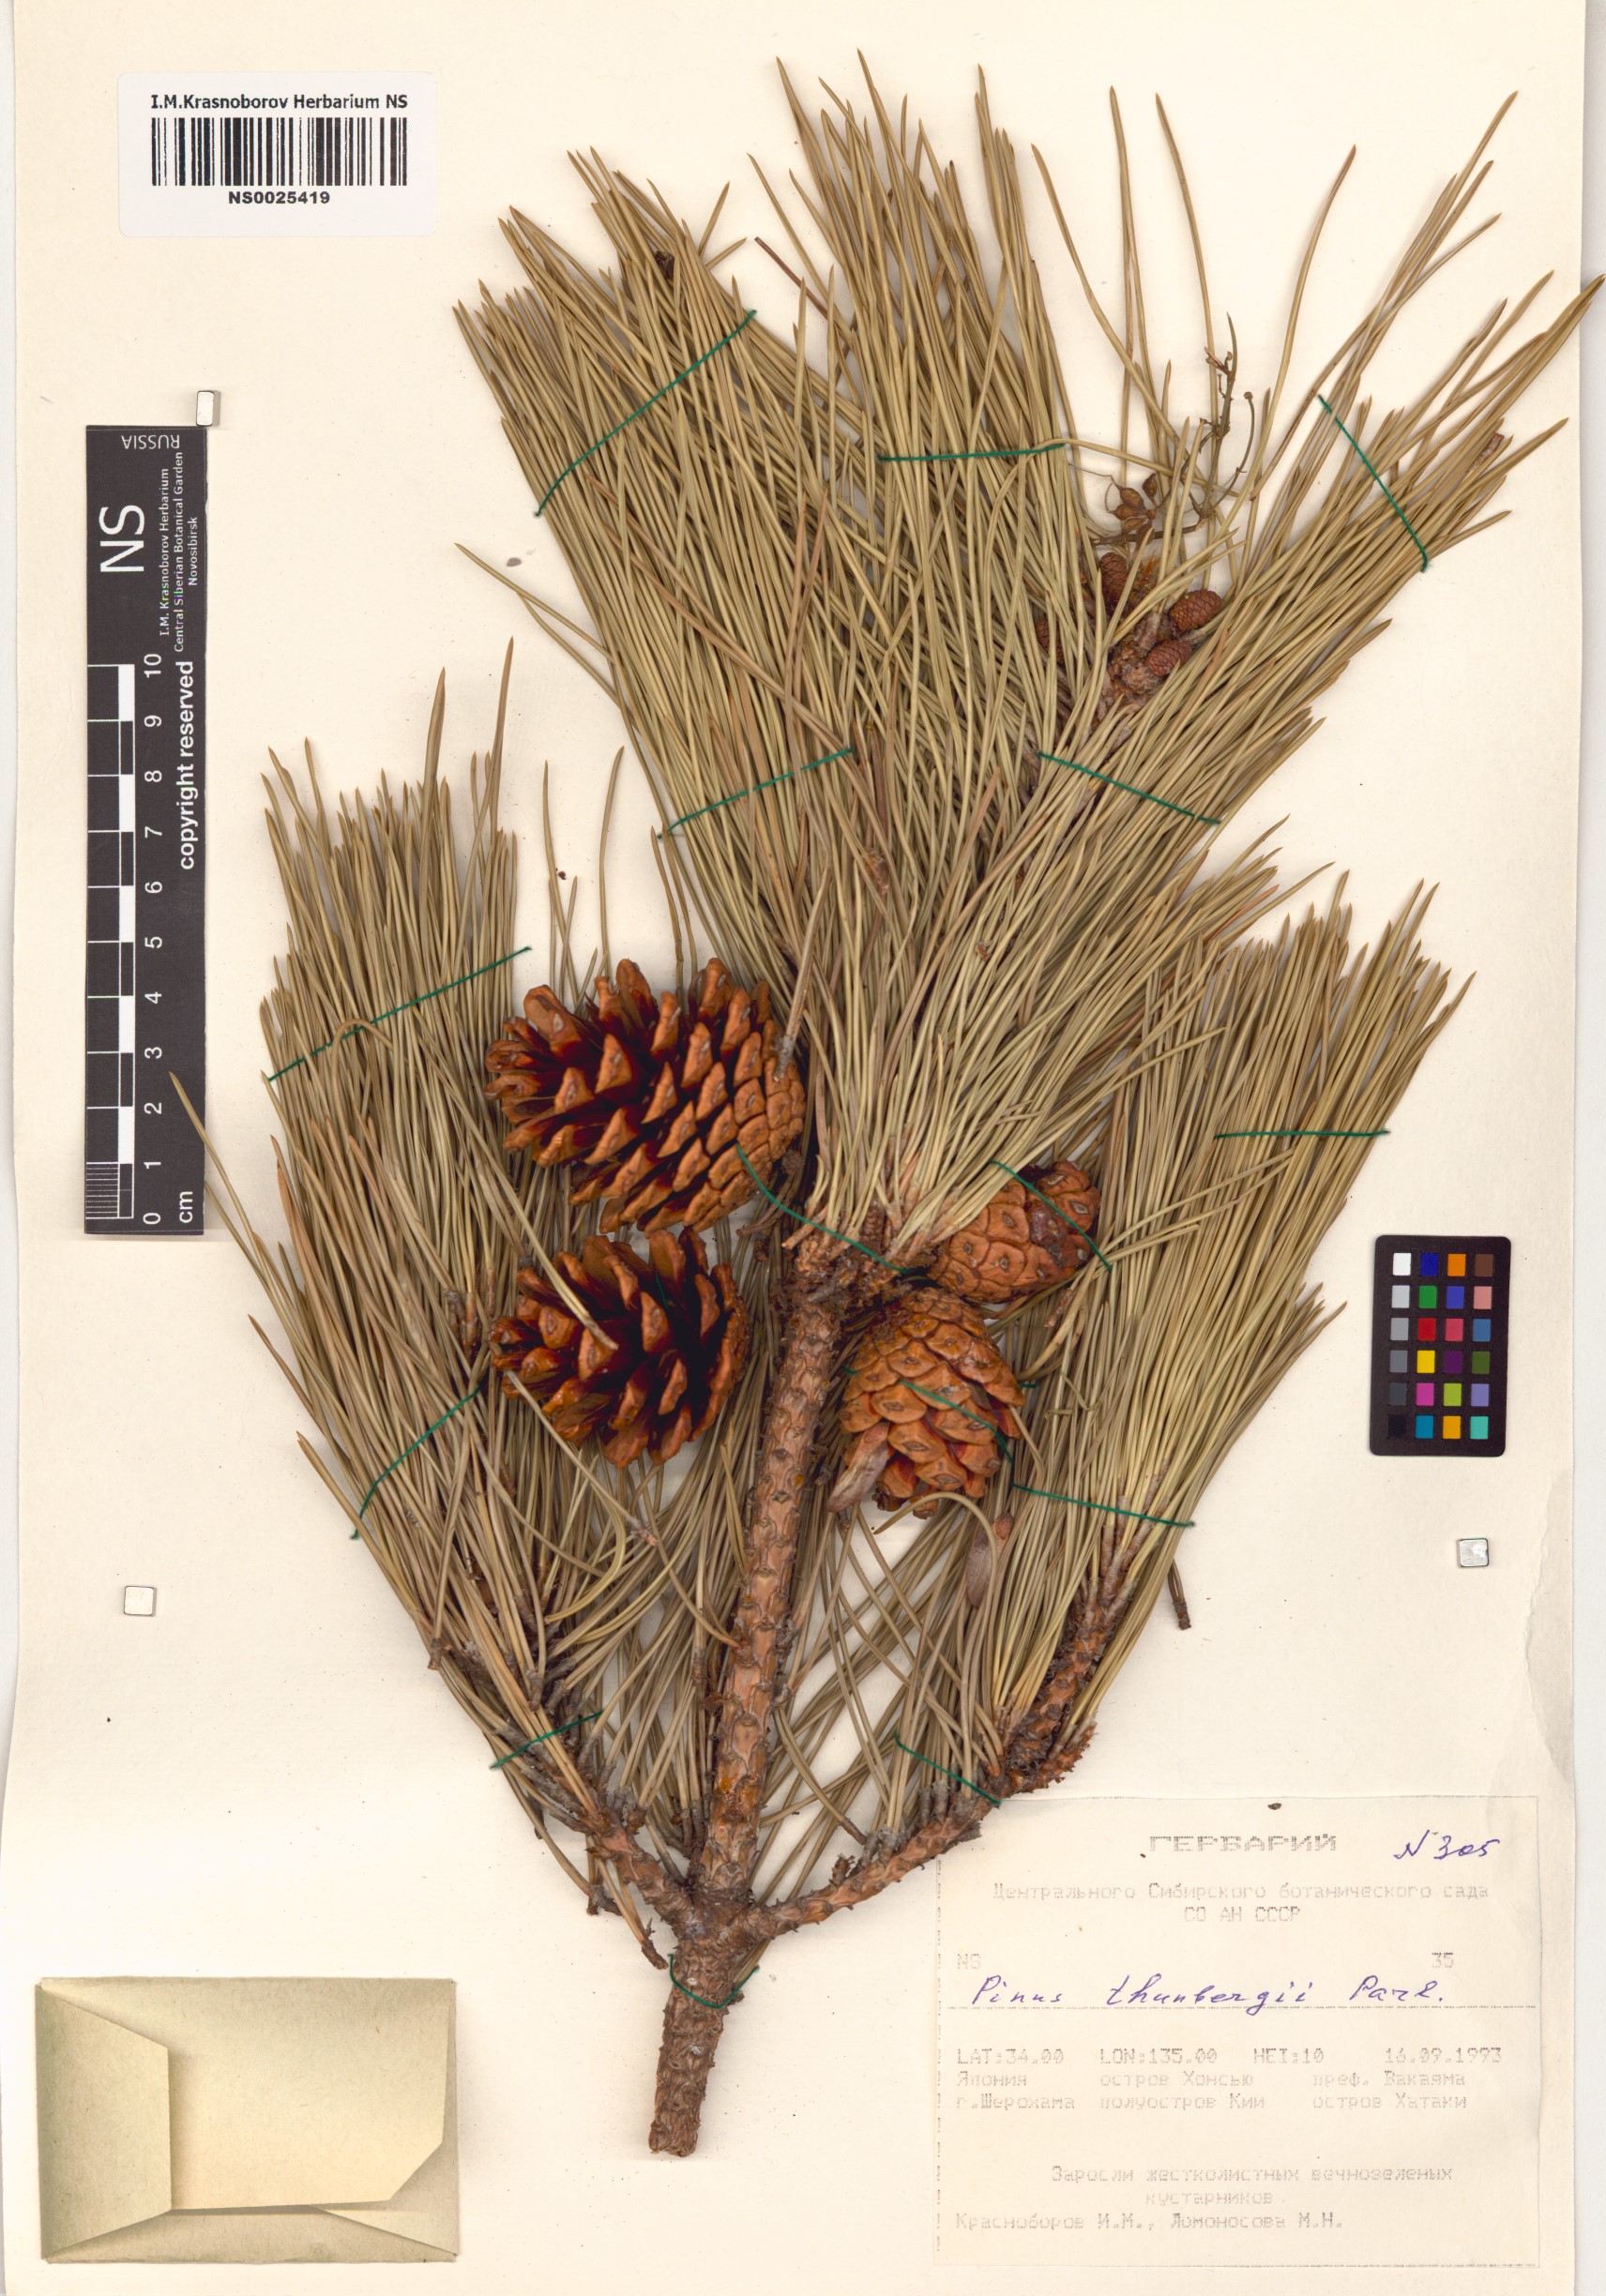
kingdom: Plantae
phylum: Tracheophyta
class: Pinopsida
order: Pinales
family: Pinaceae
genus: Pinus
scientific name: Pinus thunbergii
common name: Japanese black pine
